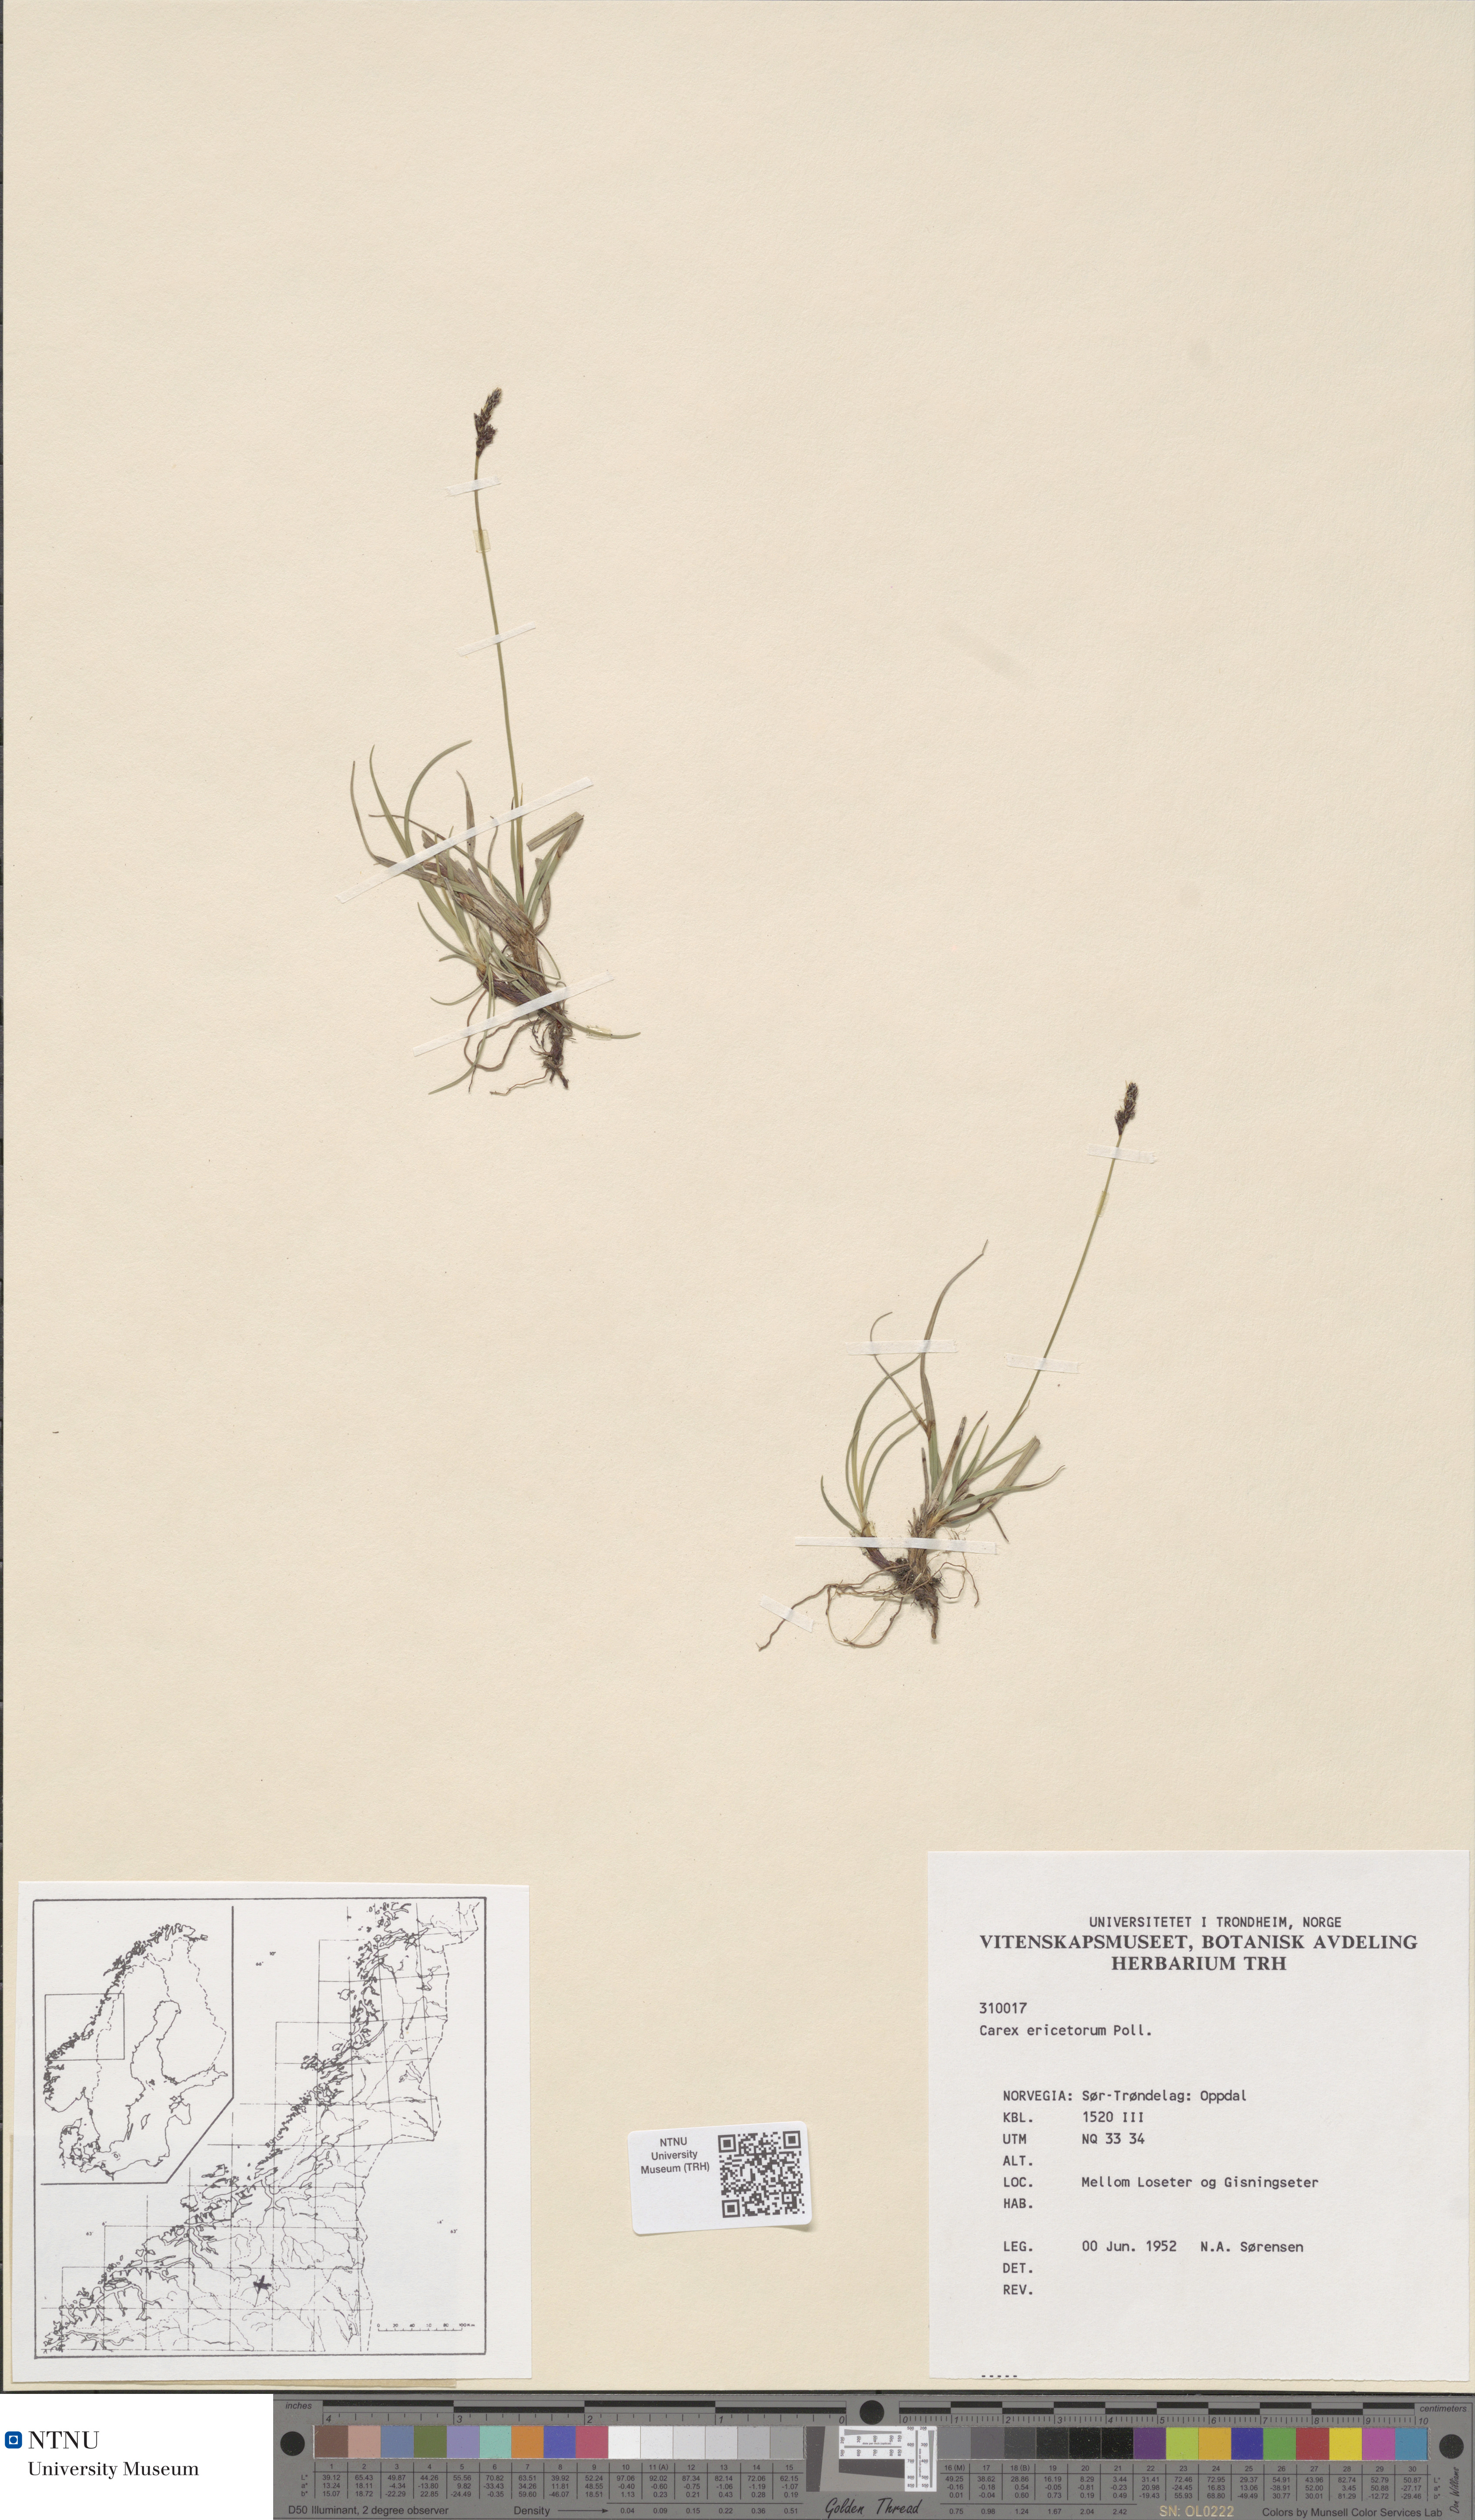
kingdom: Plantae
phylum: Tracheophyta
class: Liliopsida
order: Poales
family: Cyperaceae
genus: Carex
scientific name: Carex ericetorum
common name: Rare spring-sedge
